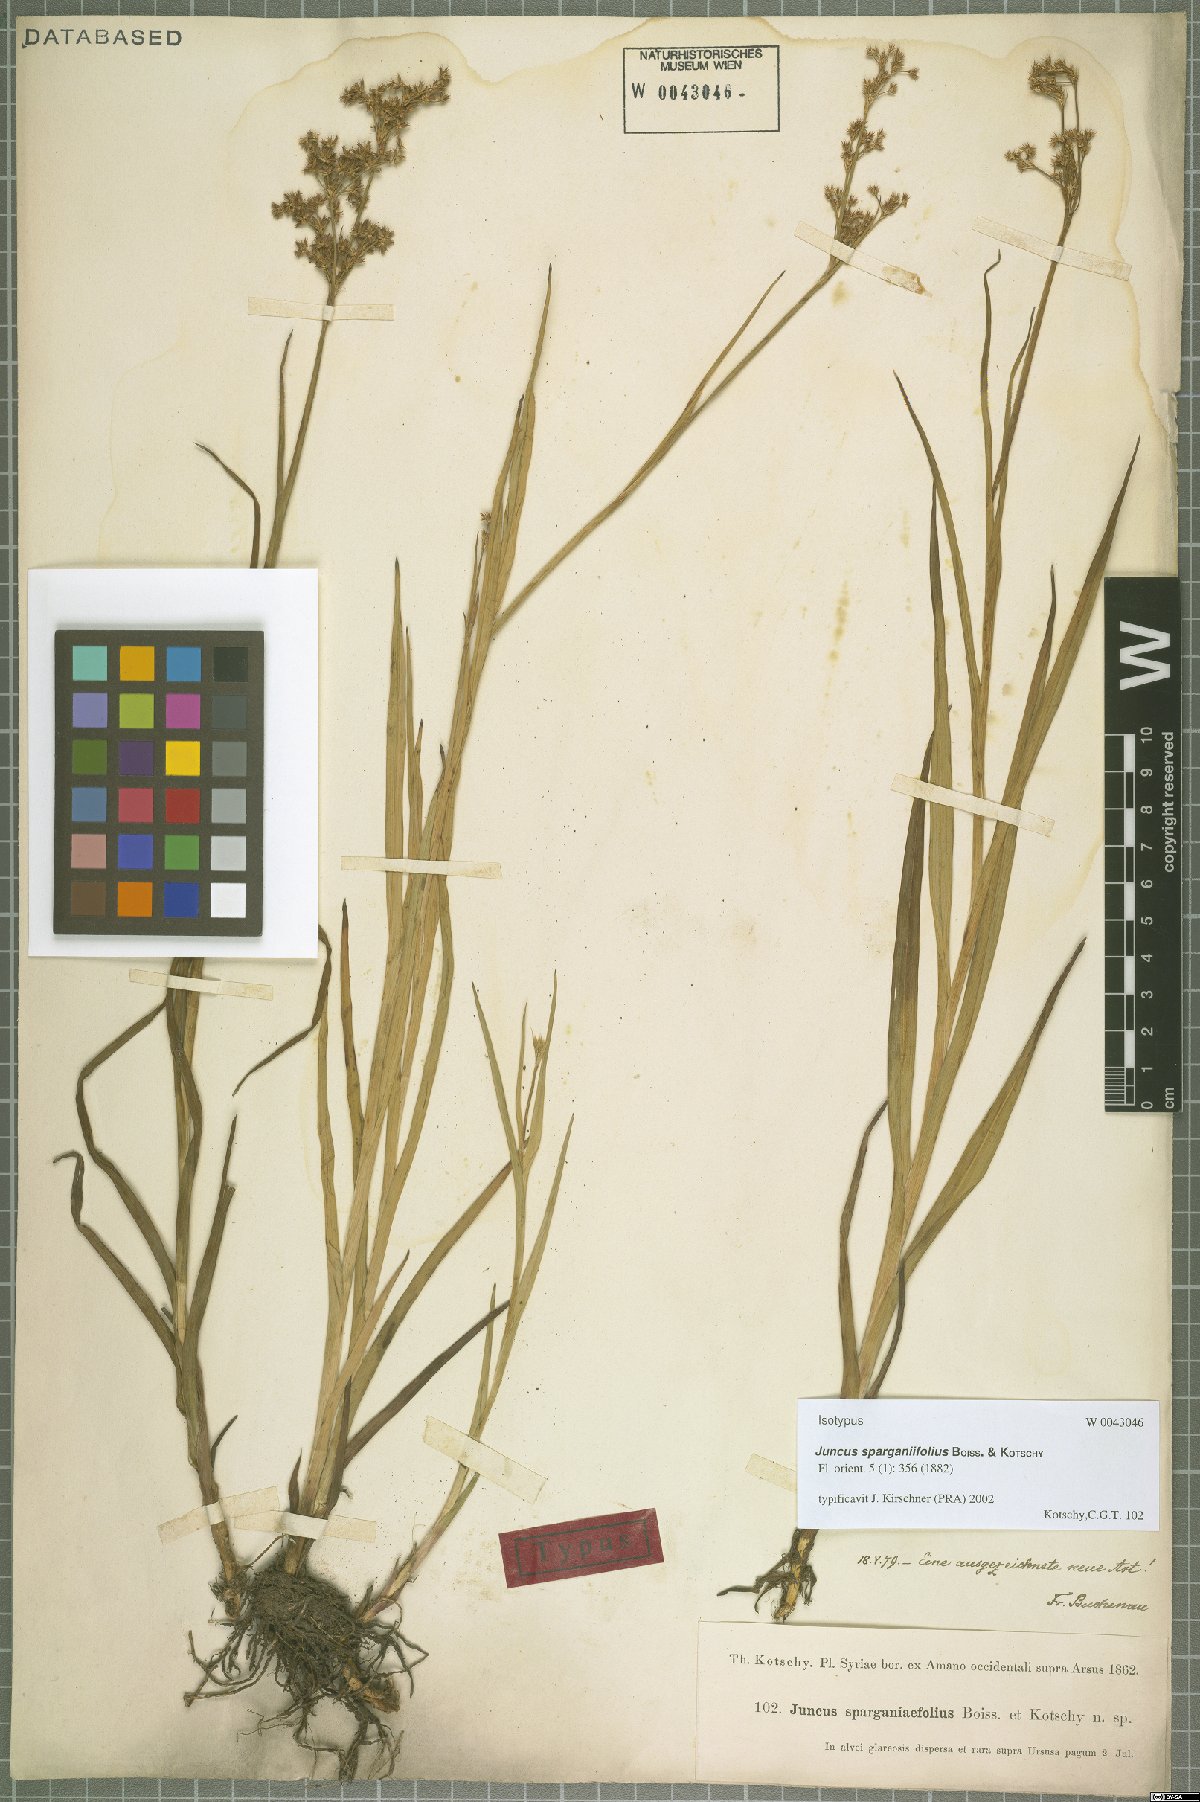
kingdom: Plantae
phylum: Tracheophyta
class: Liliopsida
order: Poales
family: Juncaceae
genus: Juncus
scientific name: Juncus sparganiifolius
